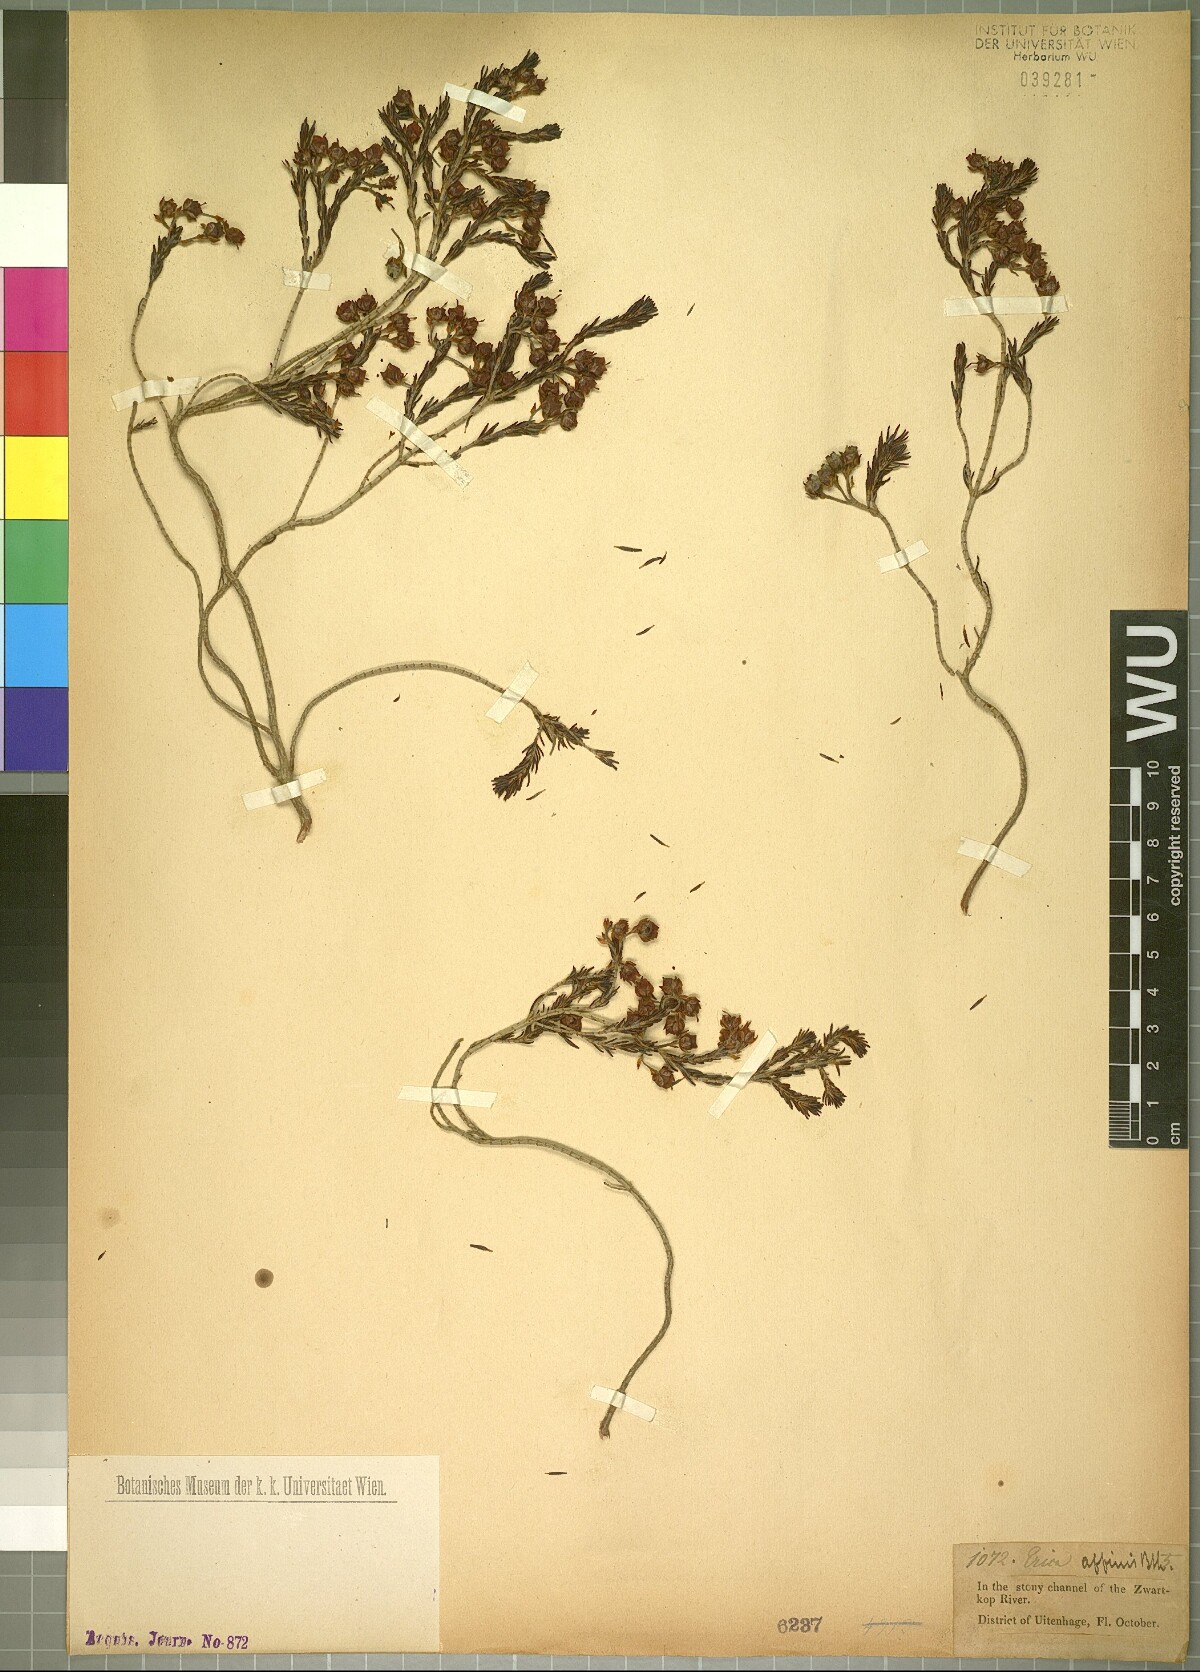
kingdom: Plantae
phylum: Tracheophyta
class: Magnoliopsida
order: Ericales
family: Ericaceae
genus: Erica
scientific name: Erica affinis
